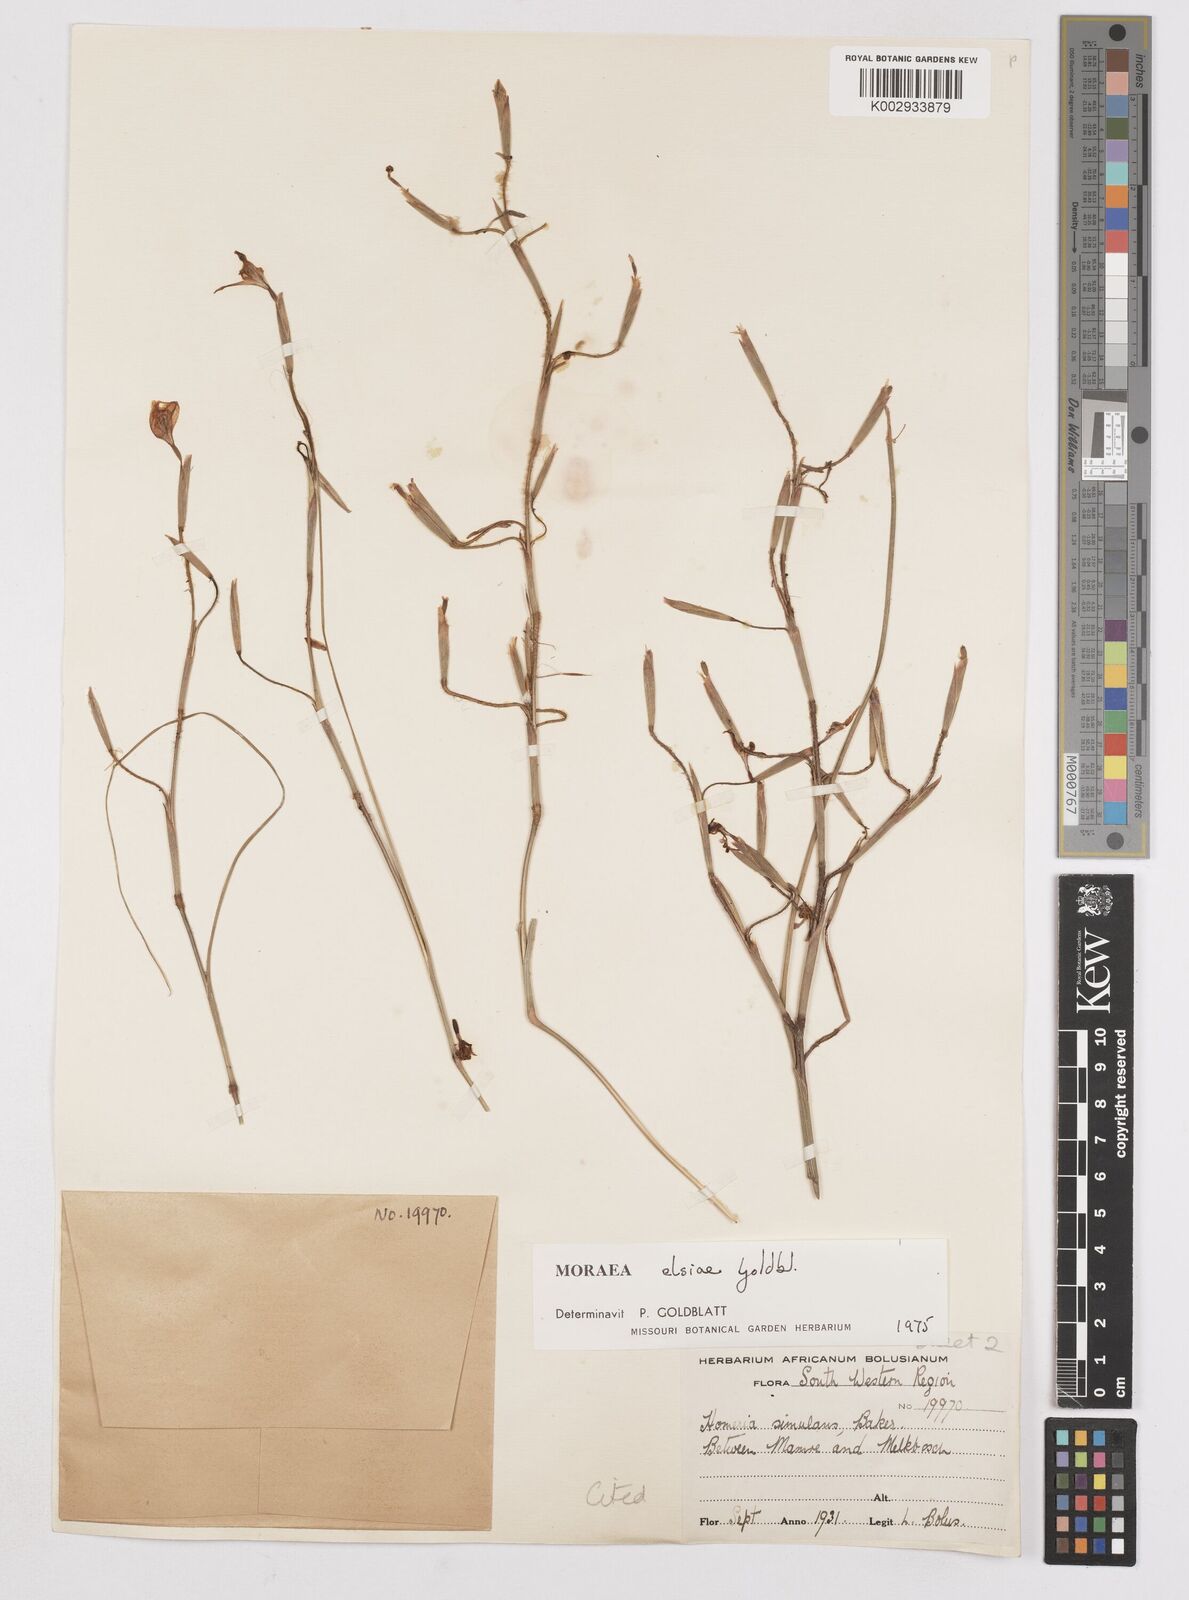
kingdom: Plantae
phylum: Tracheophyta
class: Liliopsida
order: Asparagales
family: Iridaceae
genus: Moraea
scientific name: Moraea elsiae
